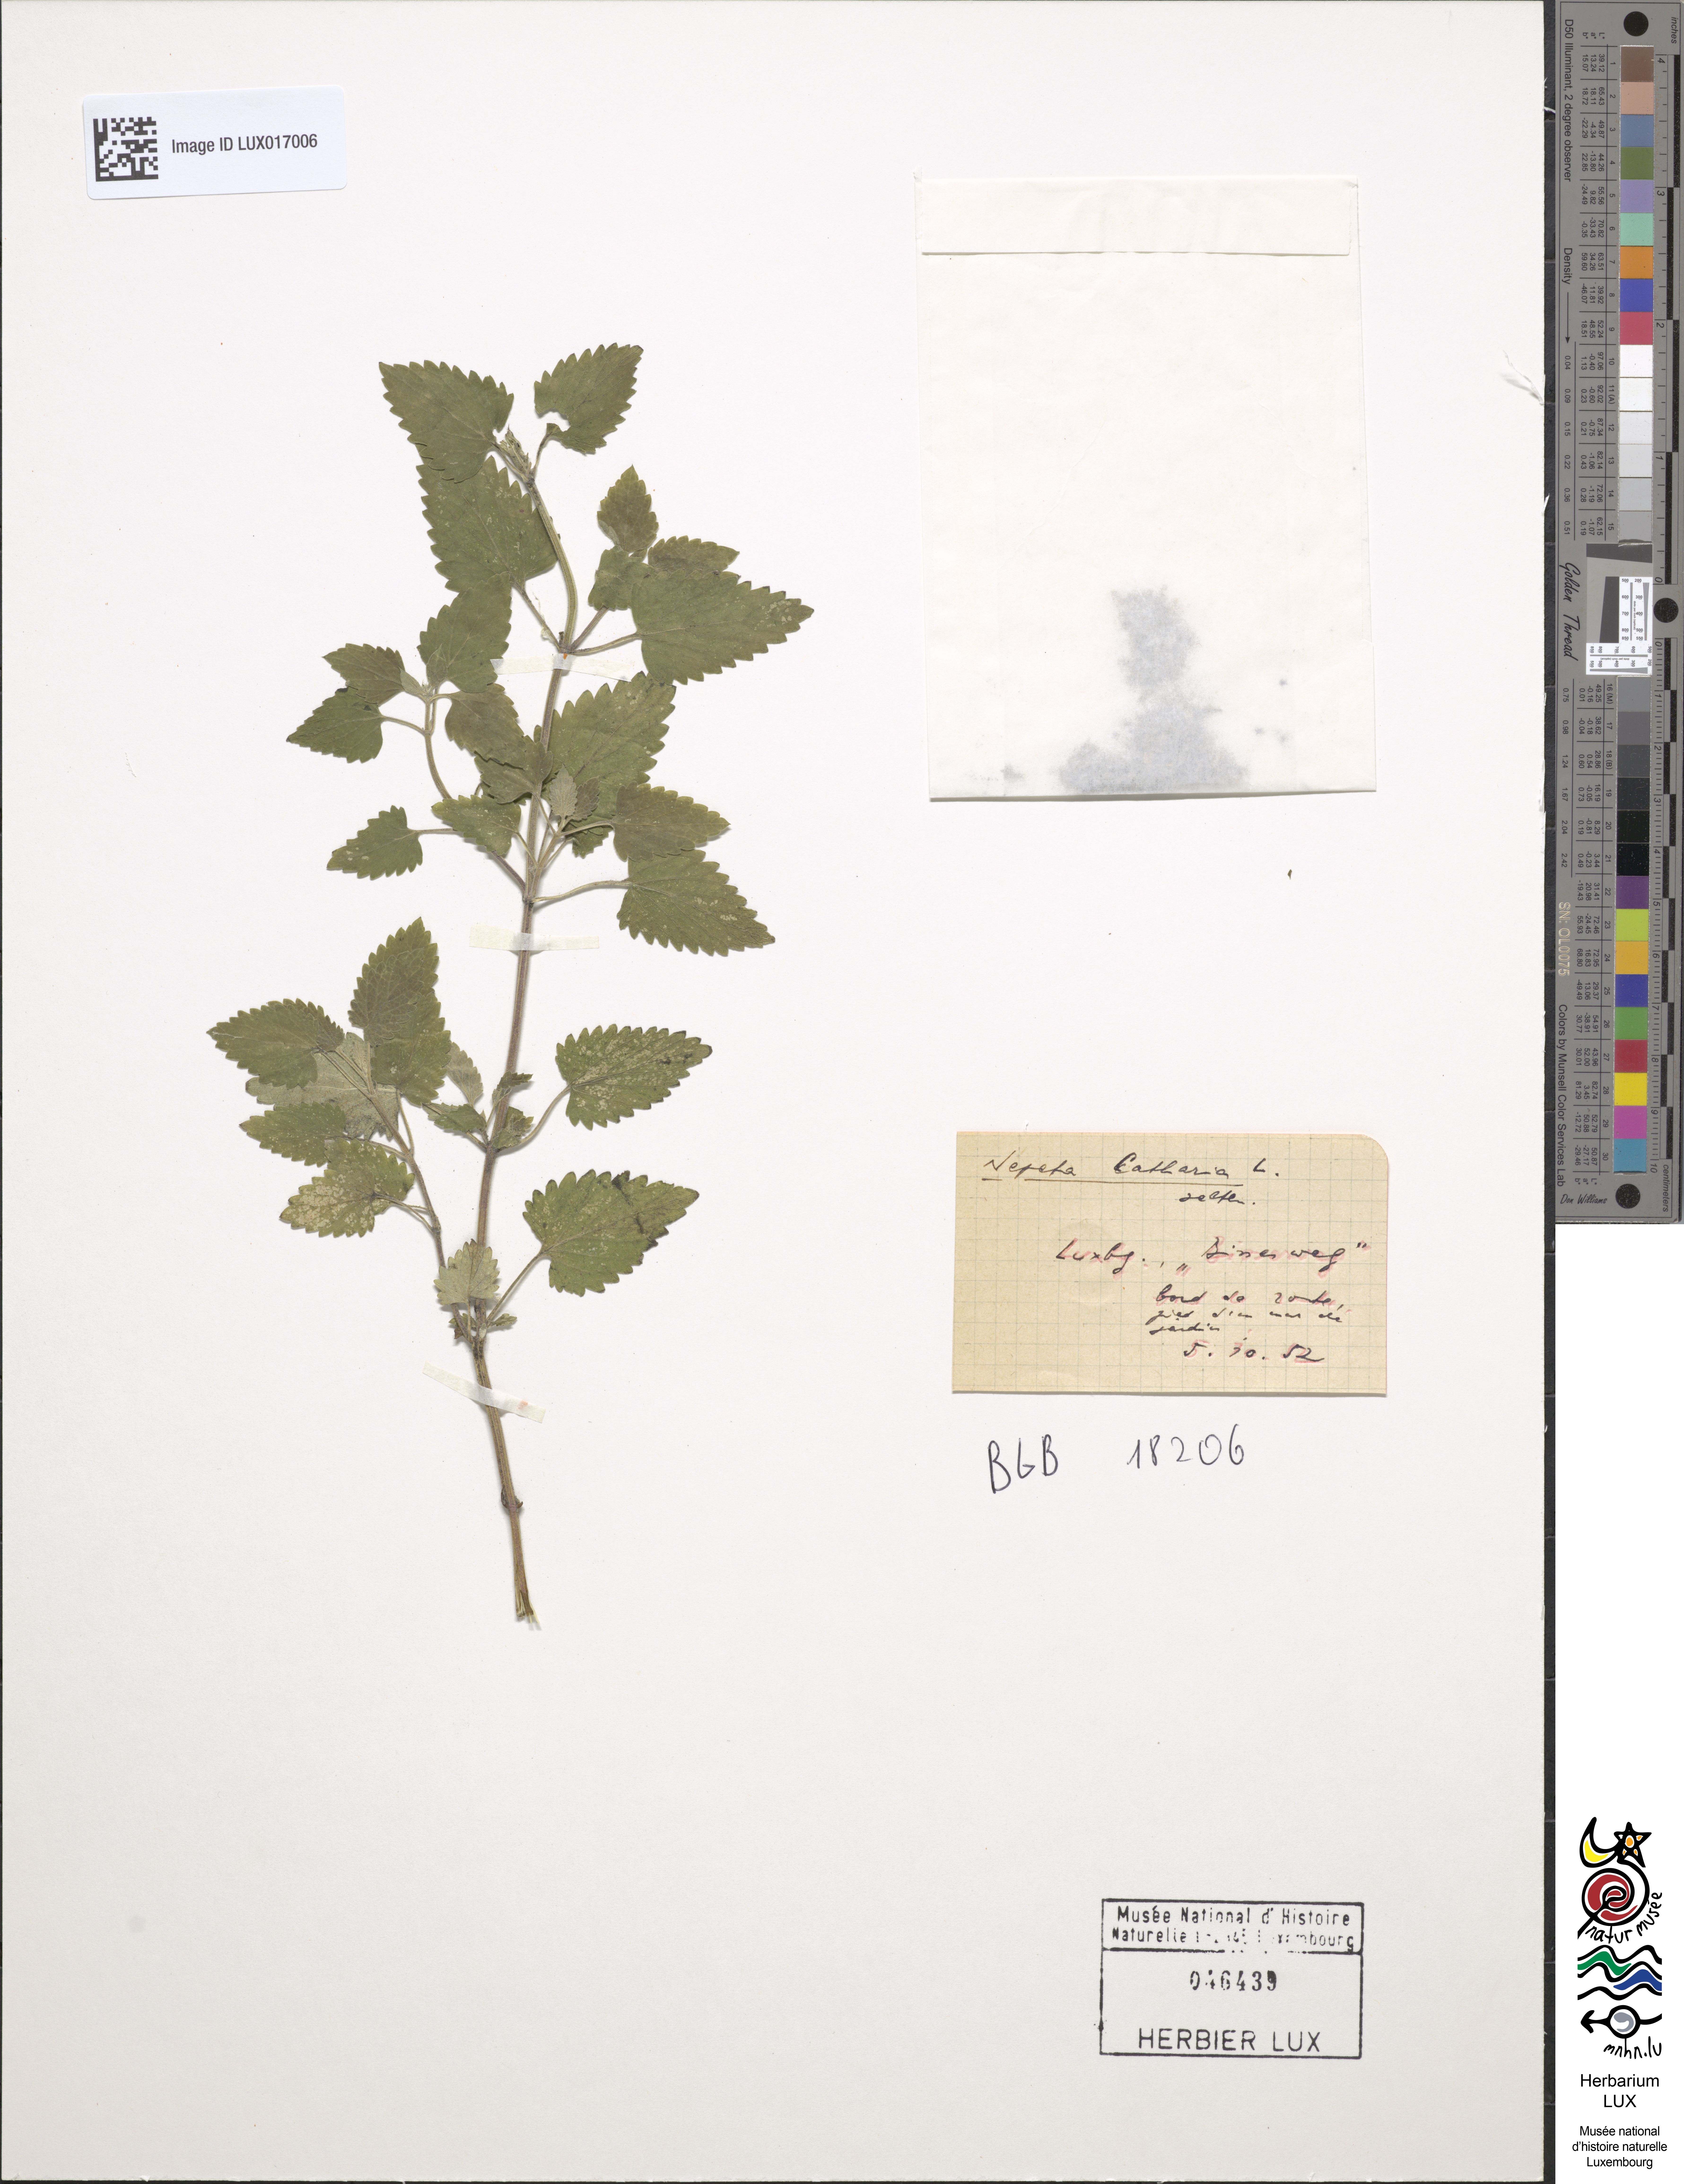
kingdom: Plantae
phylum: Tracheophyta
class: Magnoliopsida
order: Lamiales
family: Lamiaceae
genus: Nepeta
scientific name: Nepeta cataria
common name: Catnip
